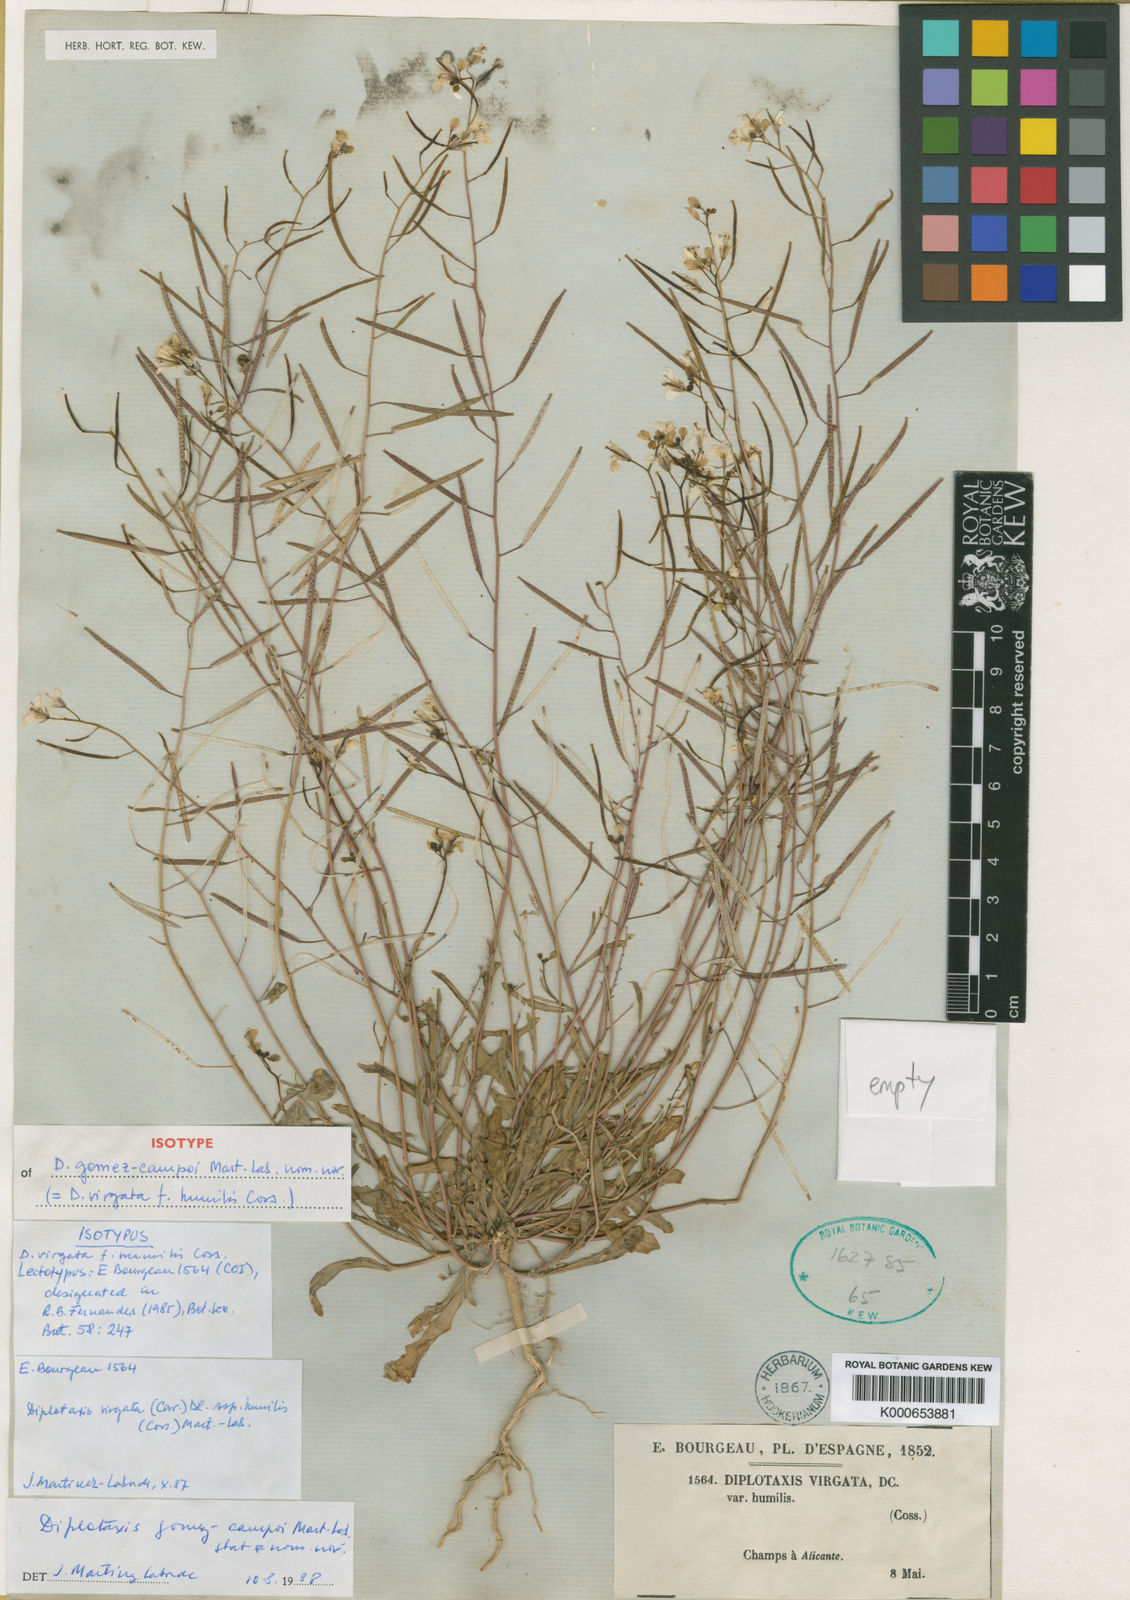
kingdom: Plantae
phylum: Tracheophyta
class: Magnoliopsida
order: Brassicales
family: Brassicaceae
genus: Diplotaxis
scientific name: Diplotaxis virgata
